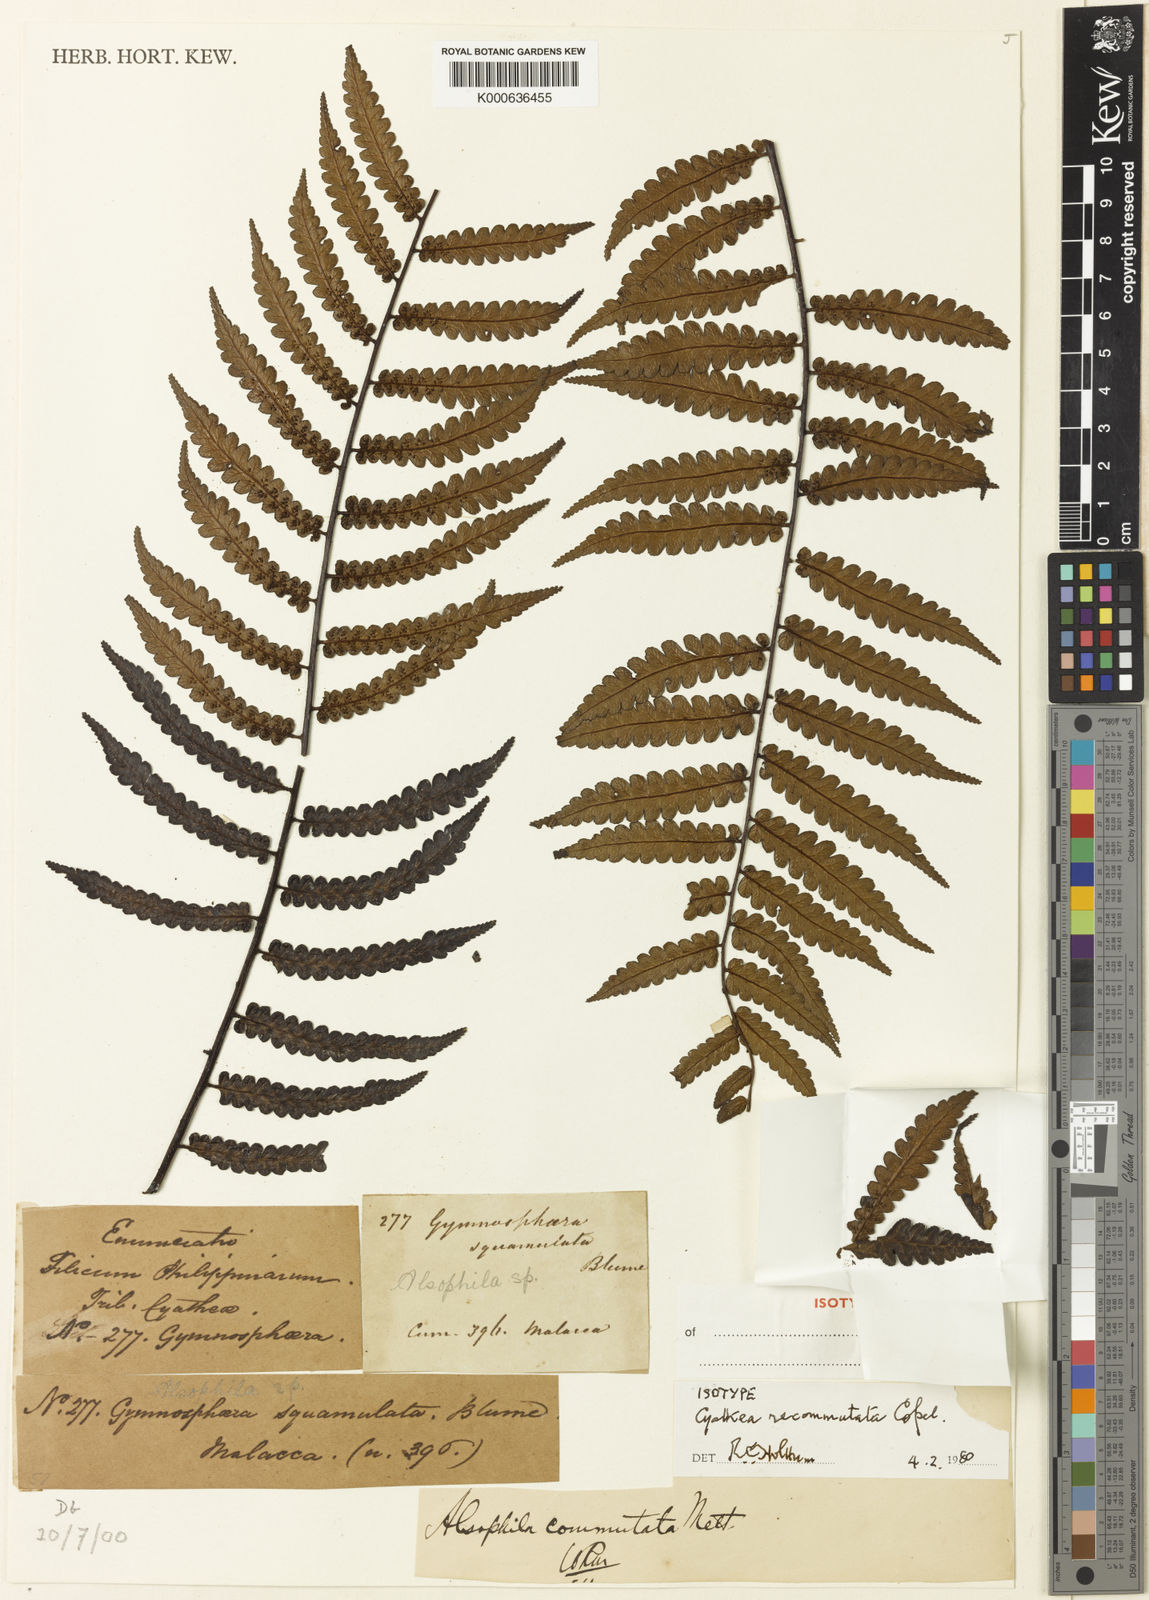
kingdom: Plantae
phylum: Tracheophyta
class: Polypodiopsida
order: Cyatheales
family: Cyatheaceae
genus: Gymnosphaera
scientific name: Gymnosphaera commutata
